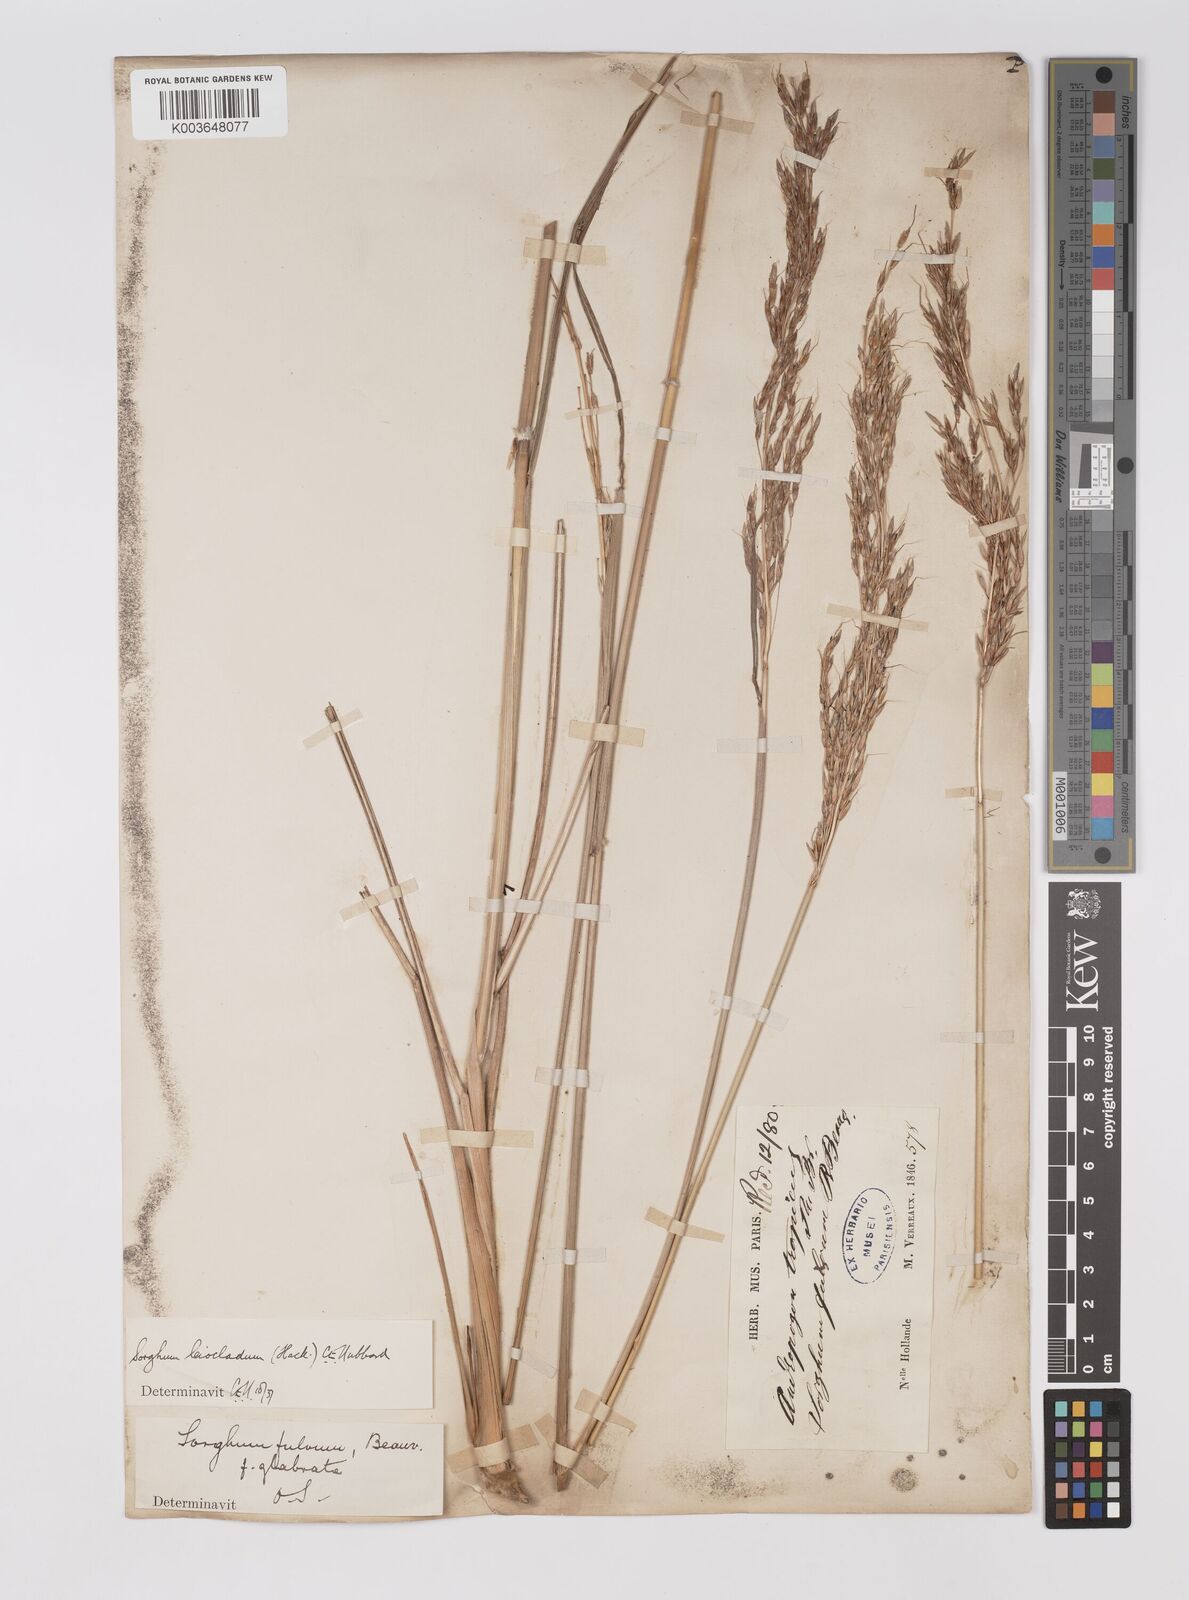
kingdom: Plantae
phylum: Tracheophyta
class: Liliopsida
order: Poales
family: Poaceae
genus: Sarga
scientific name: Sarga leioclada
